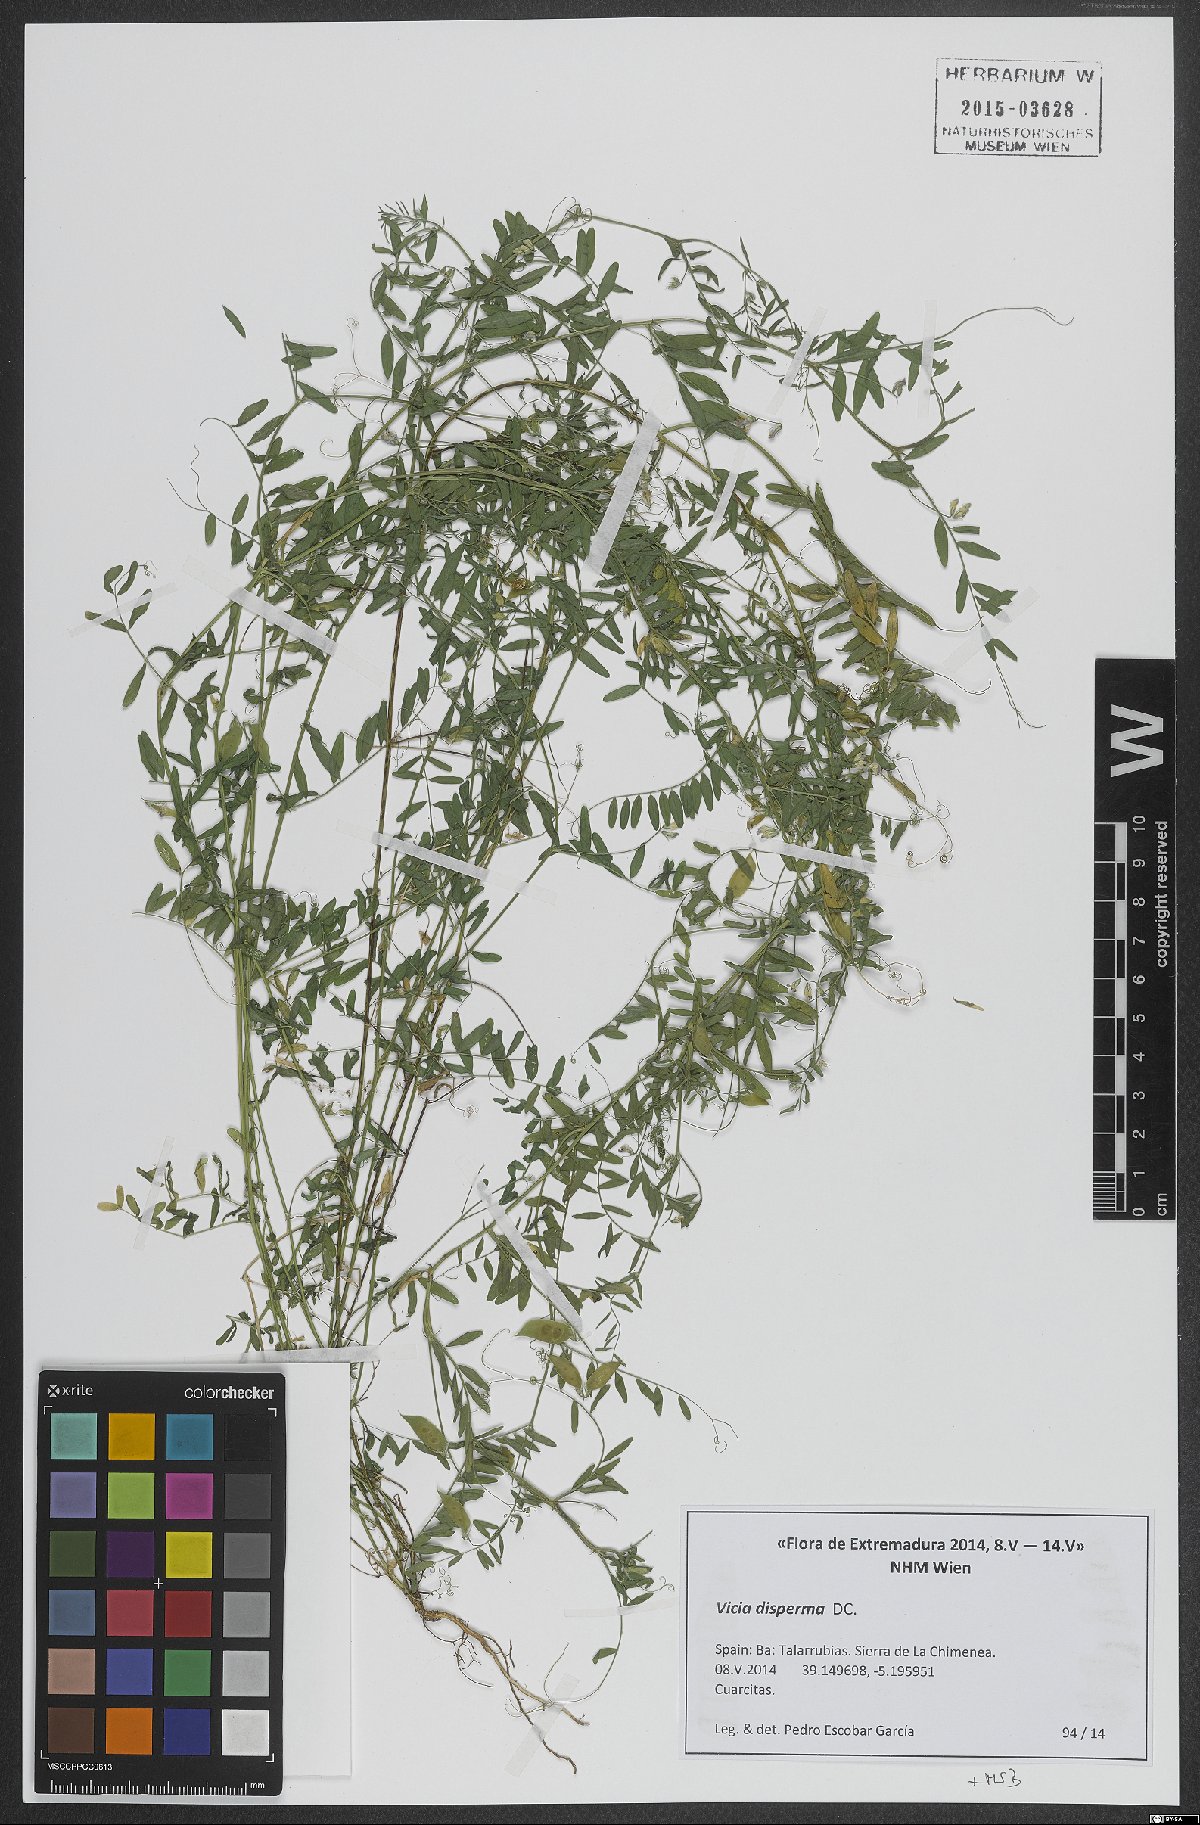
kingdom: Plantae
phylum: Tracheophyta
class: Magnoliopsida
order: Fabales
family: Fabaceae
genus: Vicia
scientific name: Vicia disperma
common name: European vetch
